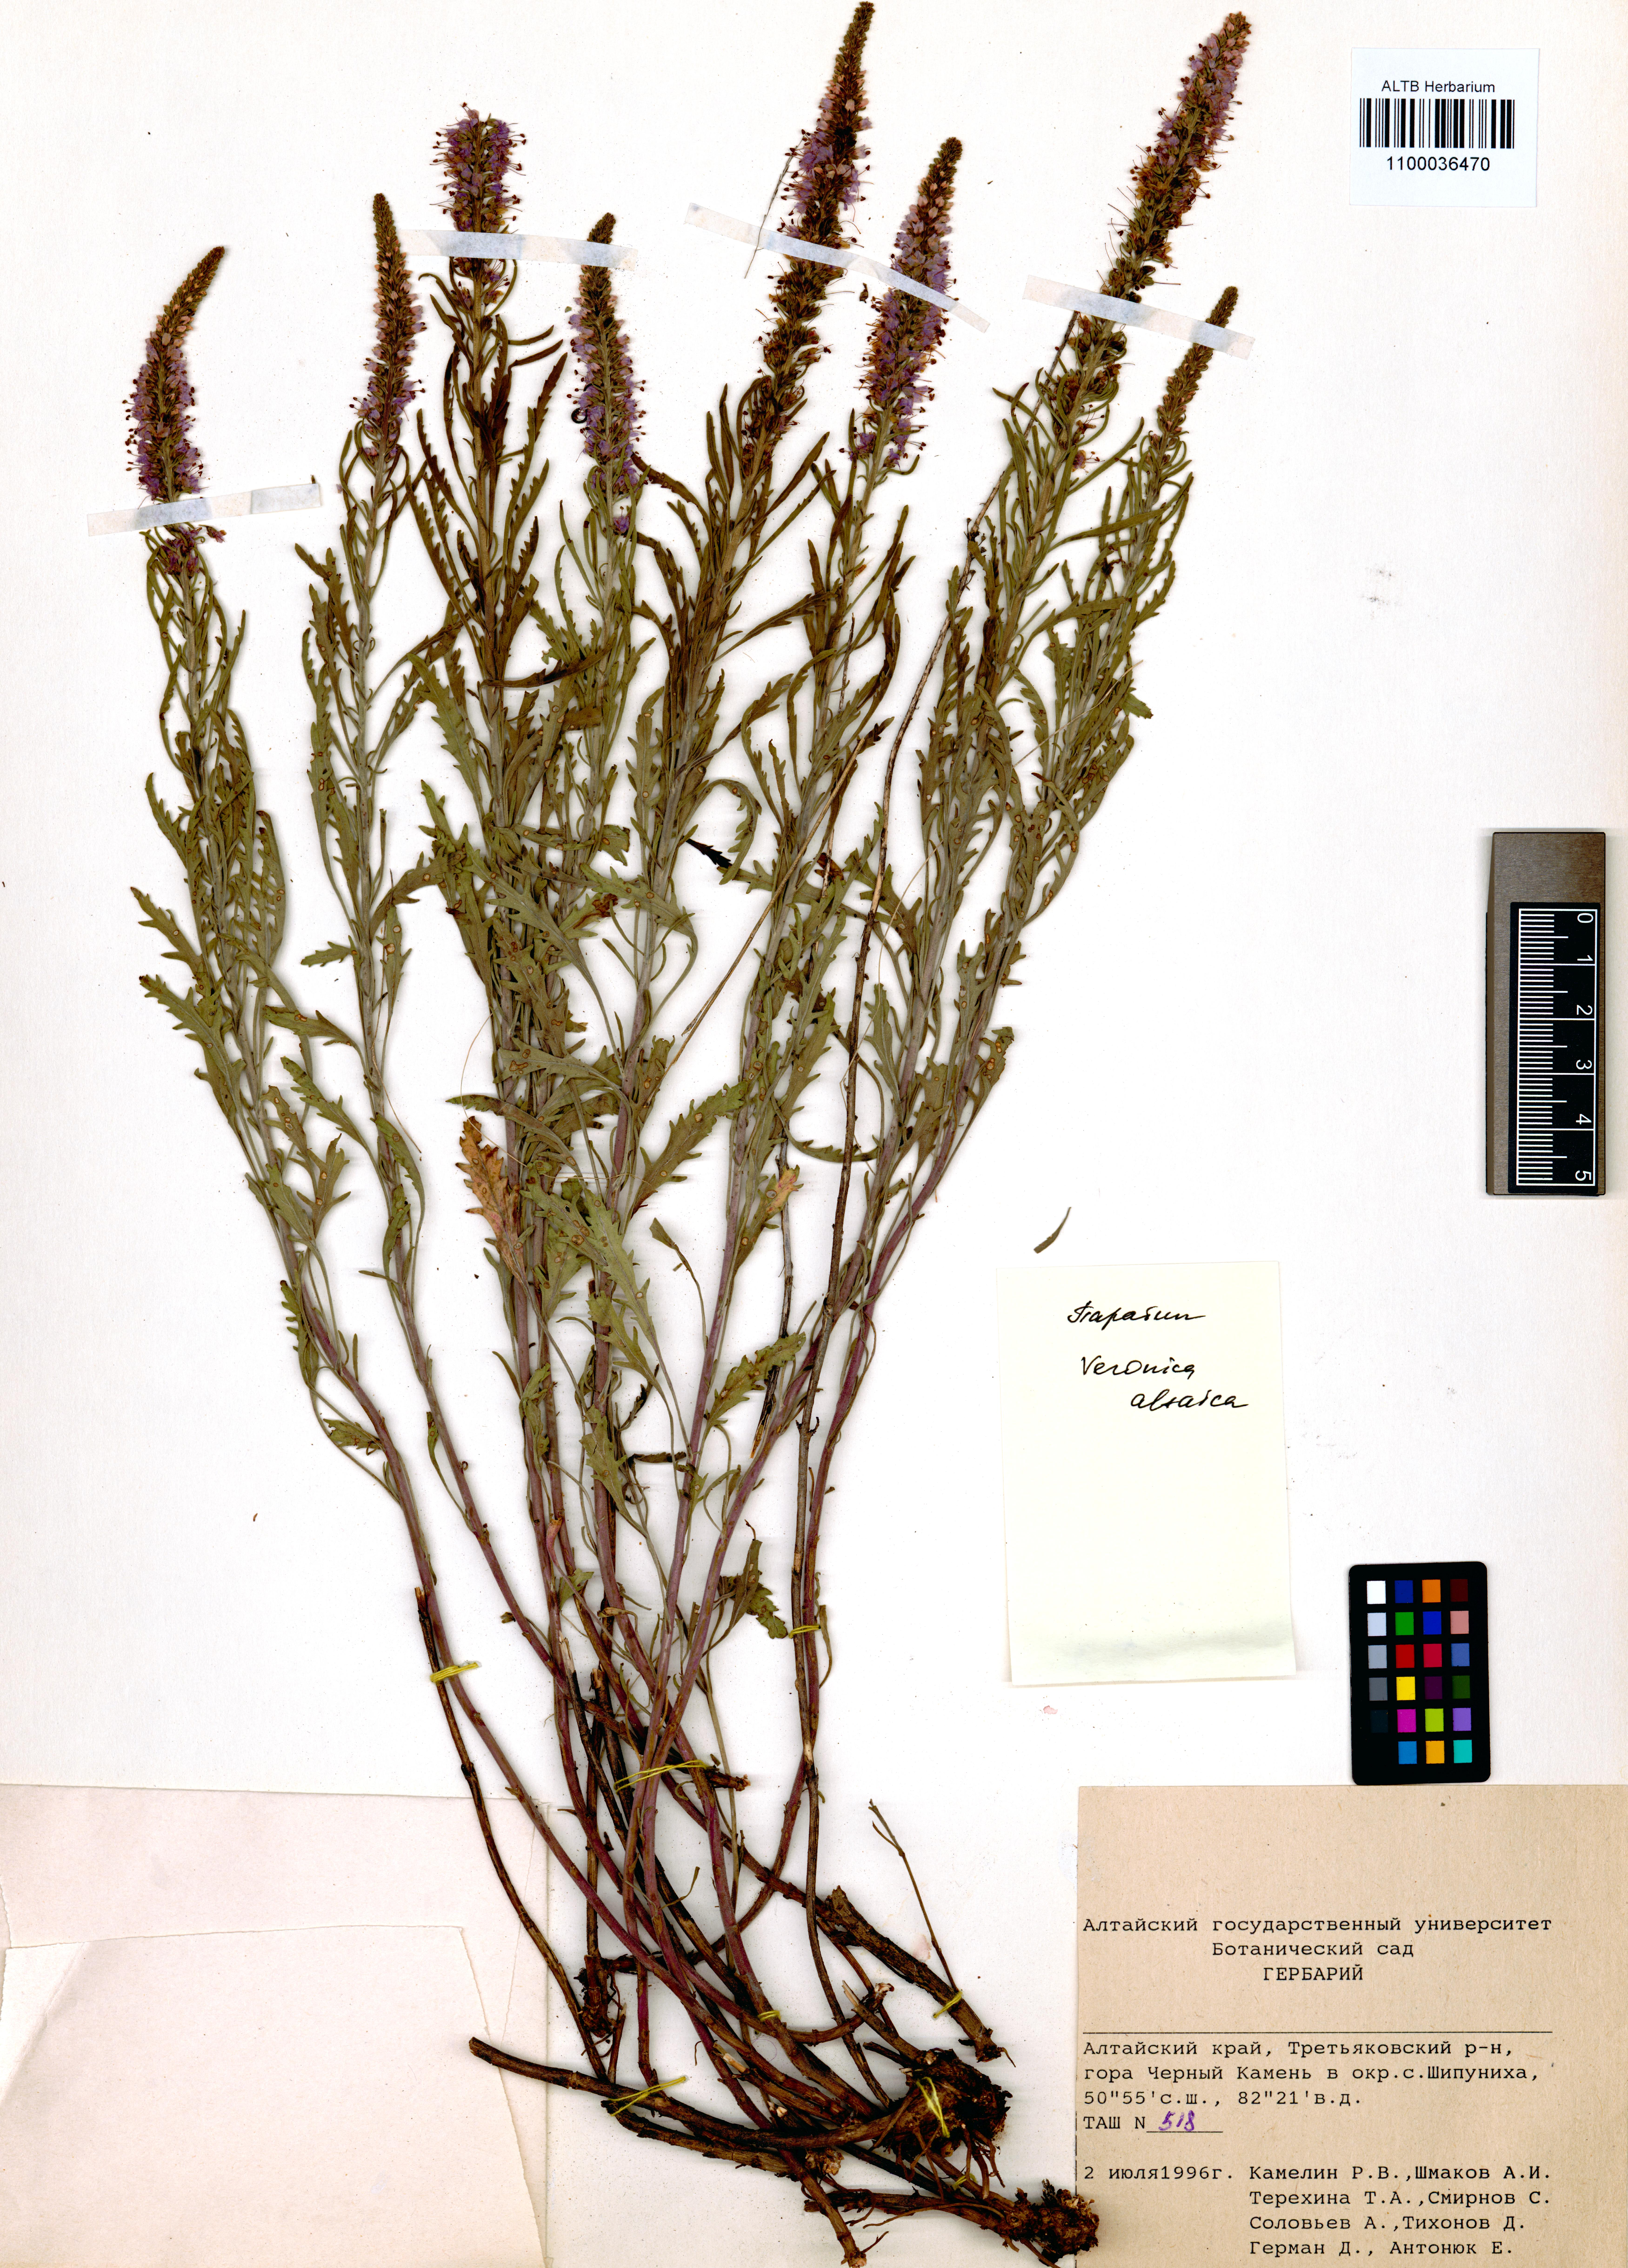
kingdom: Plantae
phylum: Tracheophyta
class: Magnoliopsida
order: Lamiales
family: Plantaginaceae
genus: Veronica
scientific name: Veronica altaica
